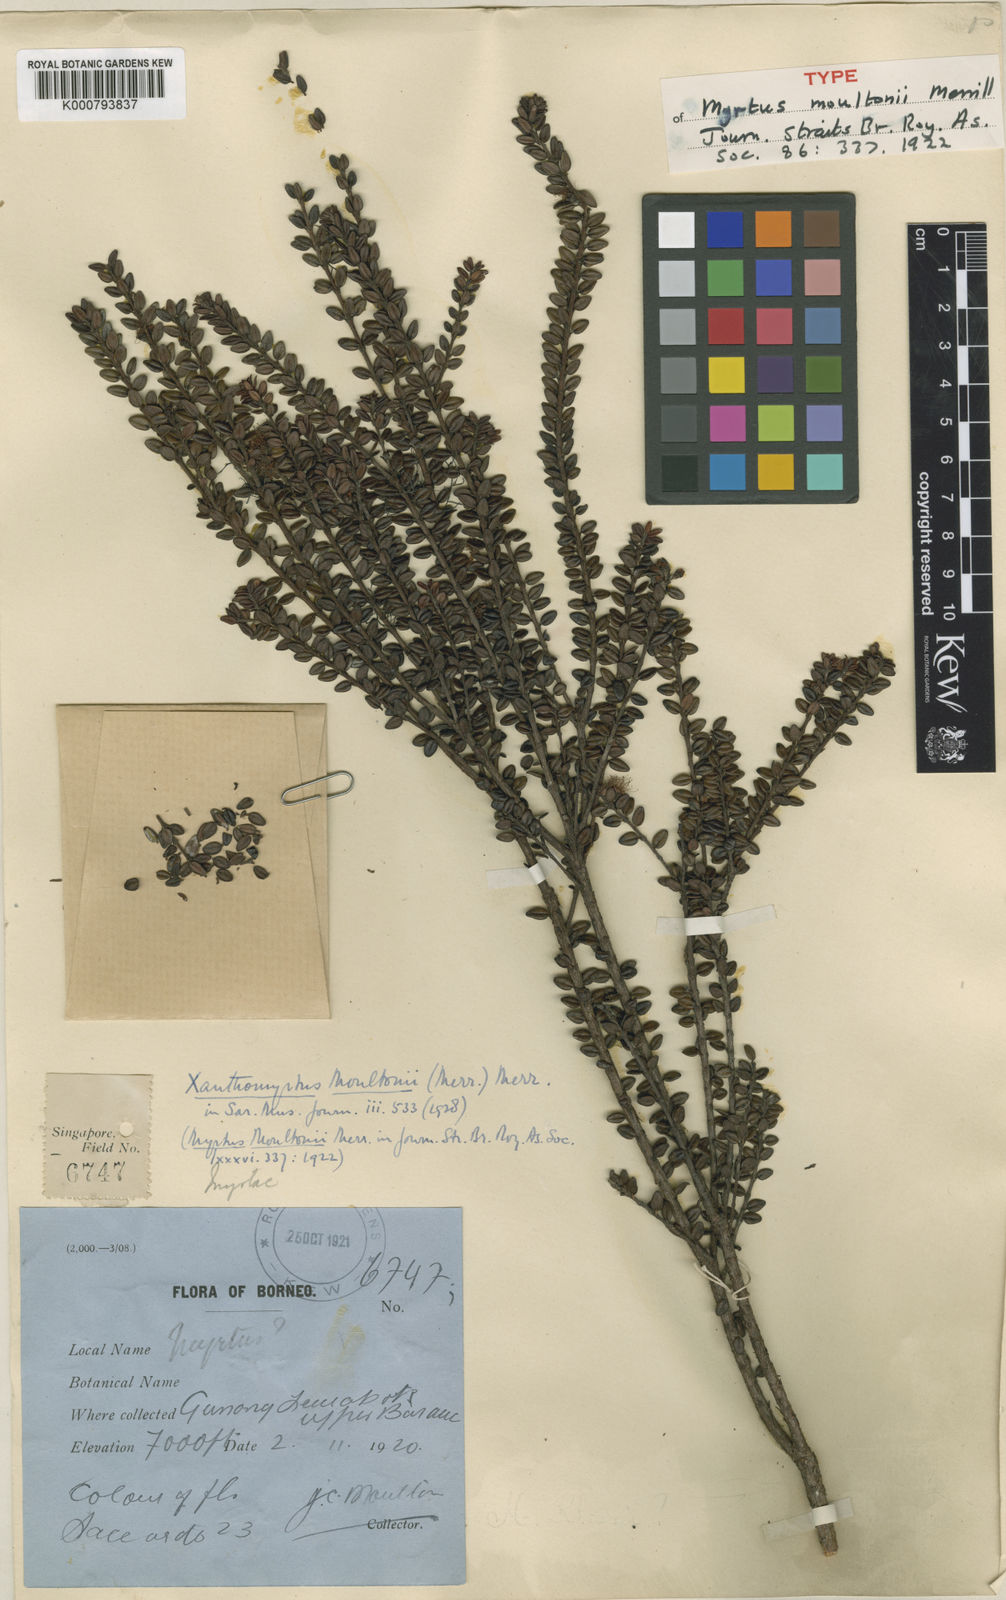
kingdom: Plantae
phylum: Tracheophyta
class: Magnoliopsida
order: Myrtales
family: Myrtaceae
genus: Xanthomyrtus
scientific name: Xanthomyrtus flavida
